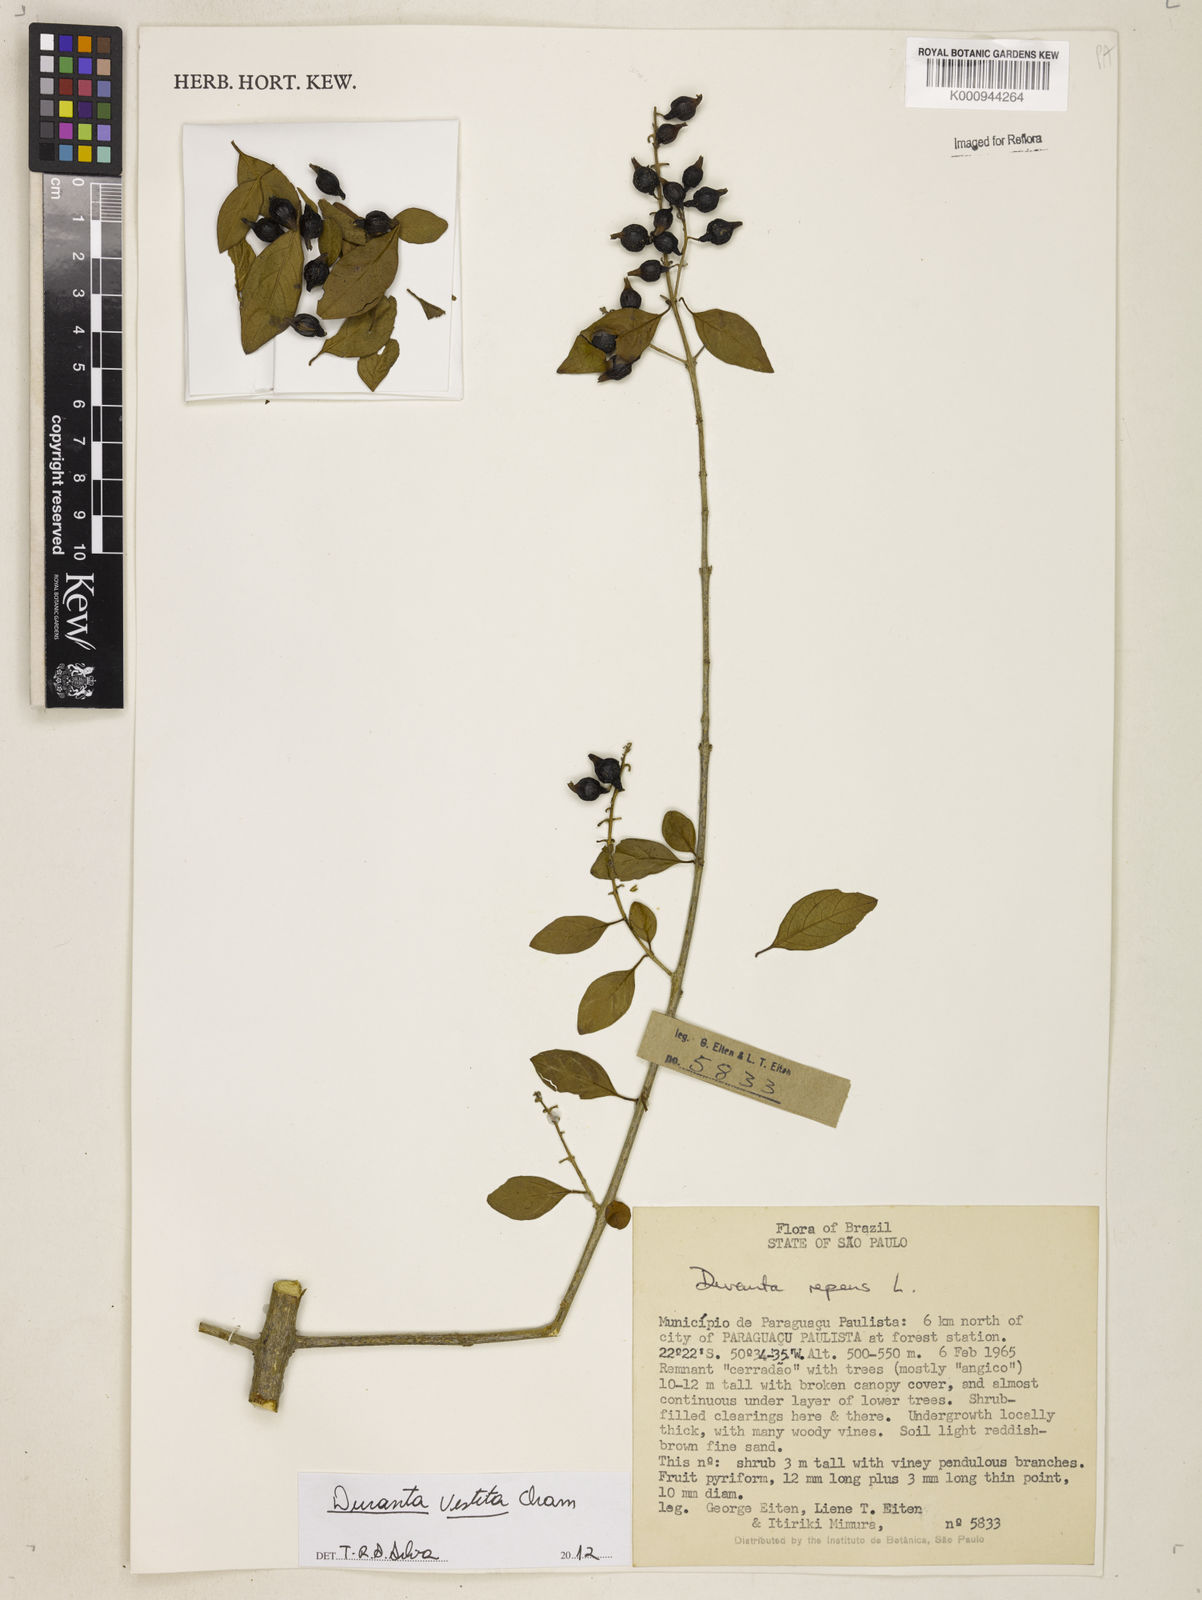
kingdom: Plantae
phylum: Tracheophyta
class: Magnoliopsida
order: Lamiales
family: Verbenaceae
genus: Citharexylum
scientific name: Citharexylum
